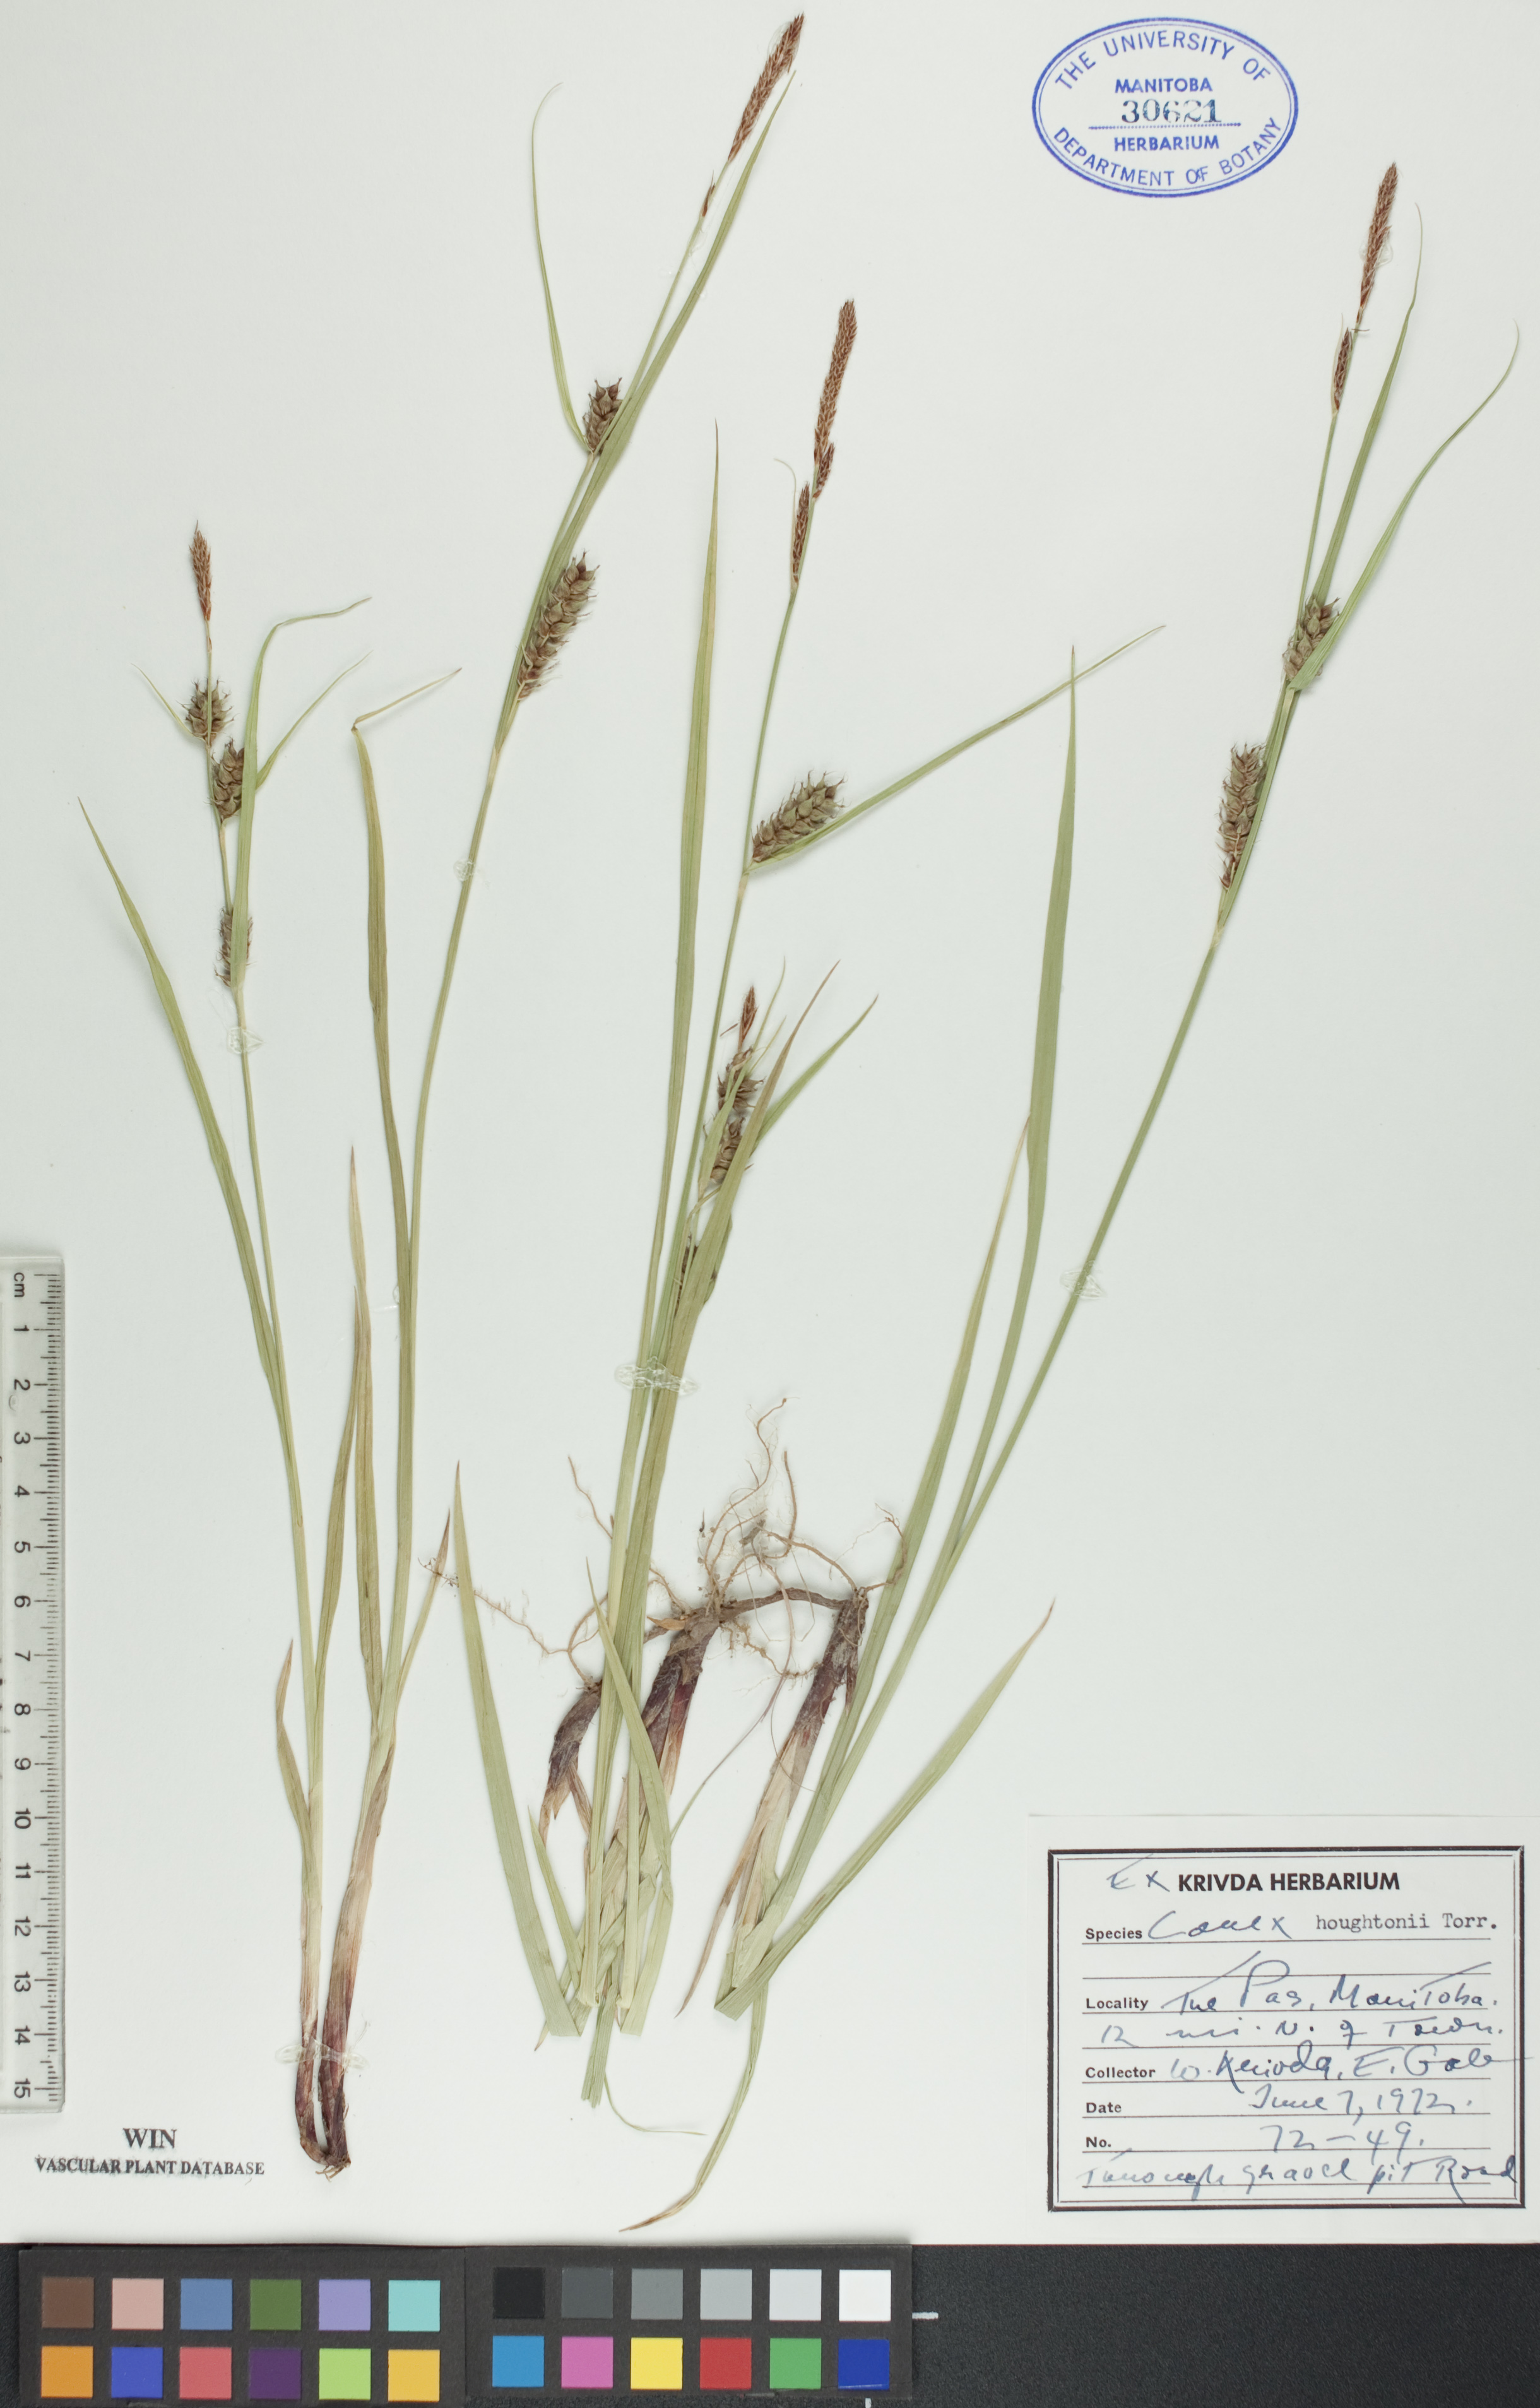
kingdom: Plantae
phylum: Tracheophyta
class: Liliopsida
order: Poales
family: Cyperaceae
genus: Carex
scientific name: Carex houghtoniana
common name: Houghton's sedge
